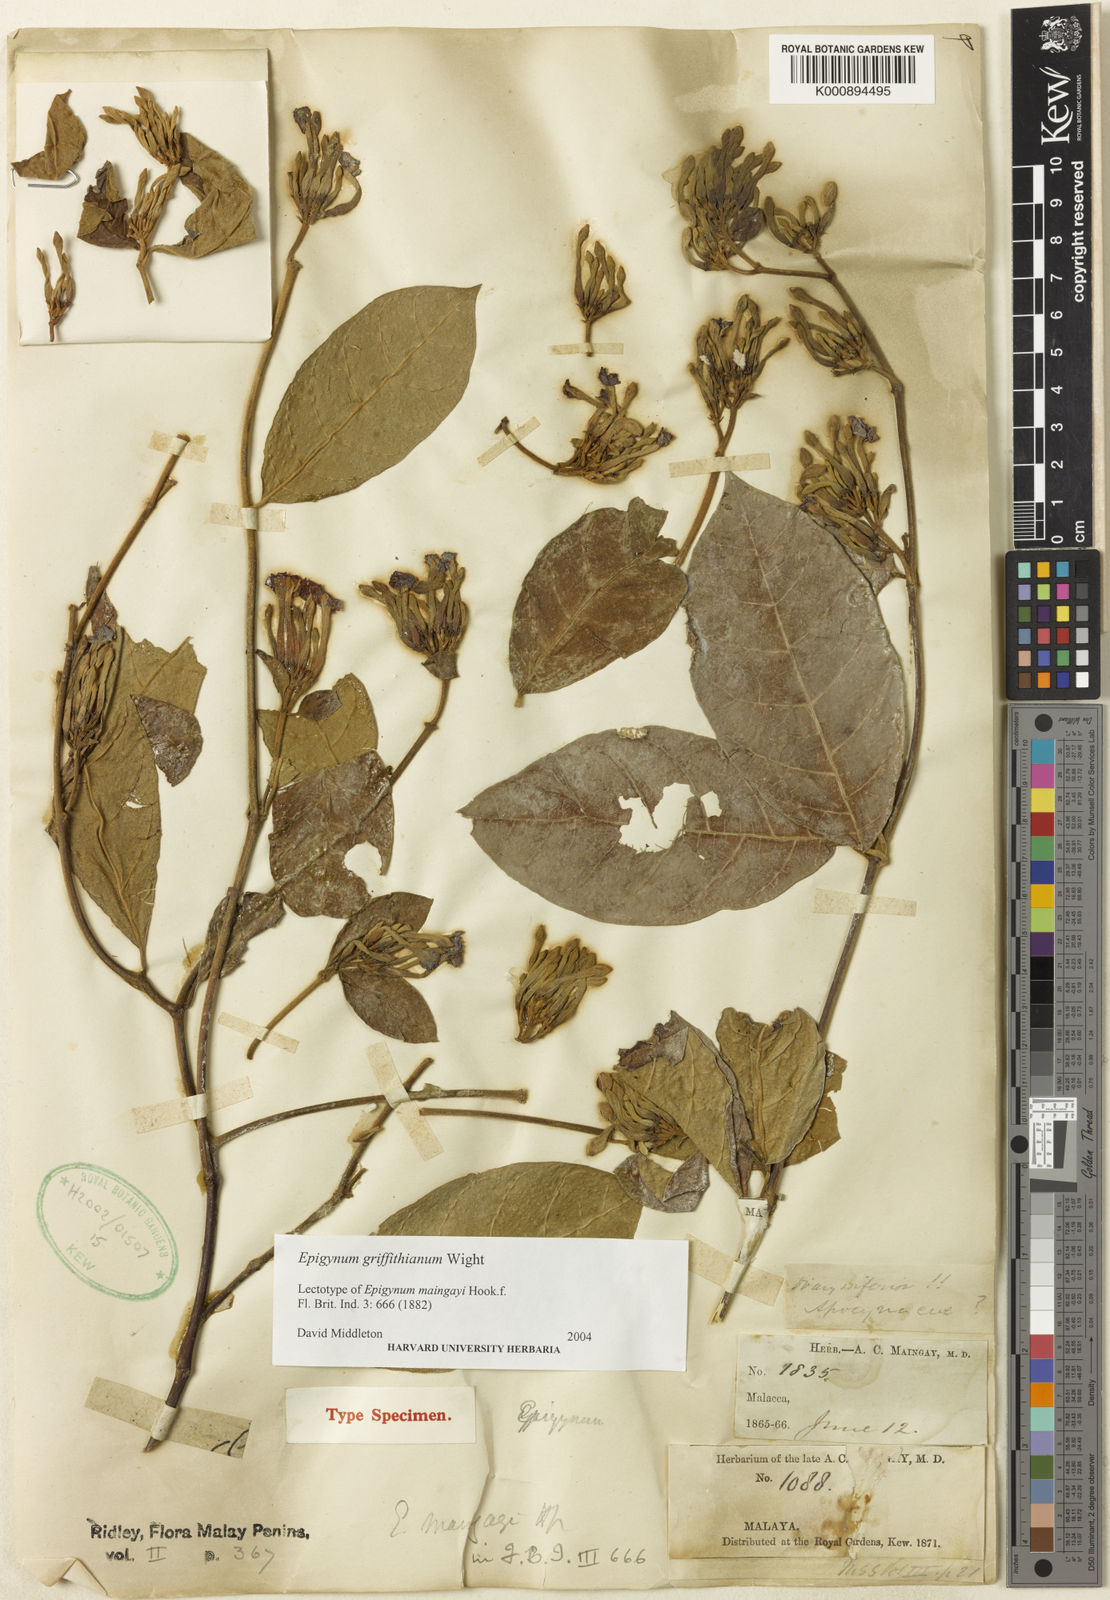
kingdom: Plantae
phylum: Tracheophyta
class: Magnoliopsida
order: Gentianales
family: Apocynaceae
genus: Epigynum
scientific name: Epigynum griffithianum
